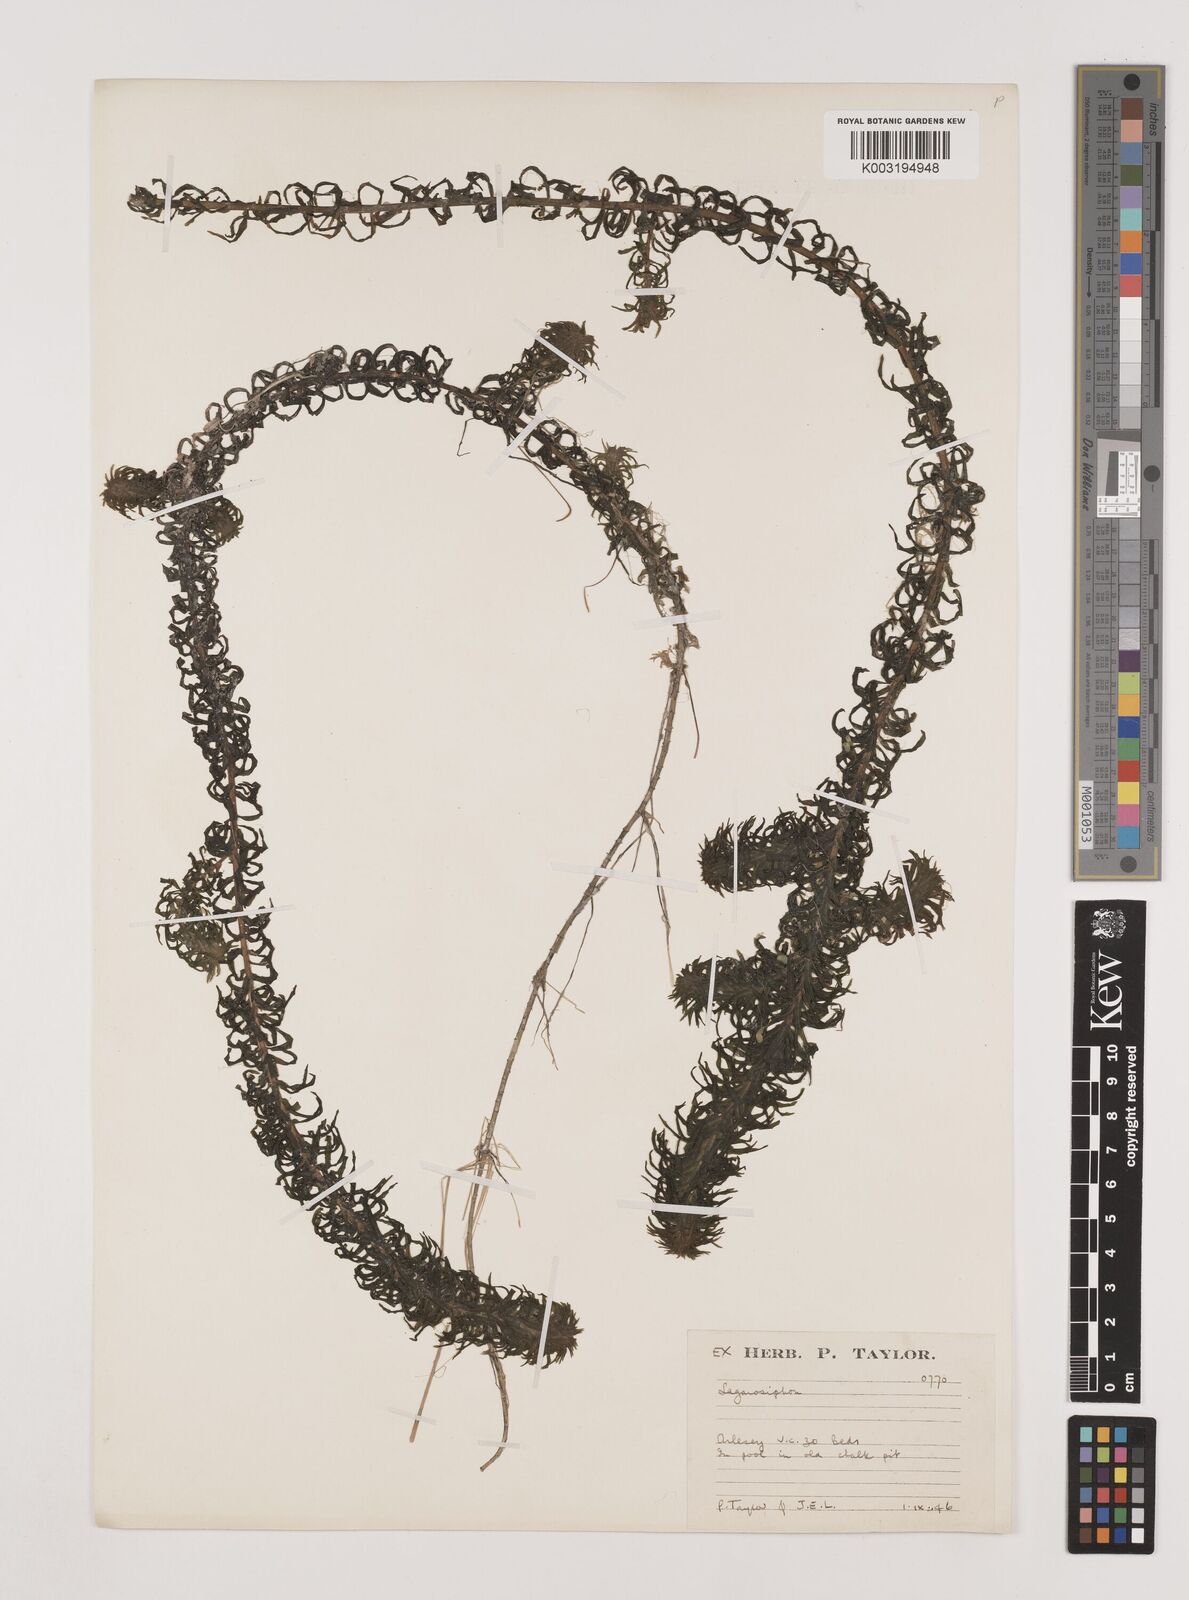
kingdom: Plantae
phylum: Tracheophyta
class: Liliopsida
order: Alismatales
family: Hydrocharitaceae
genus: Lagarosiphon
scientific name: Lagarosiphon major
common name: Curly waterweed
